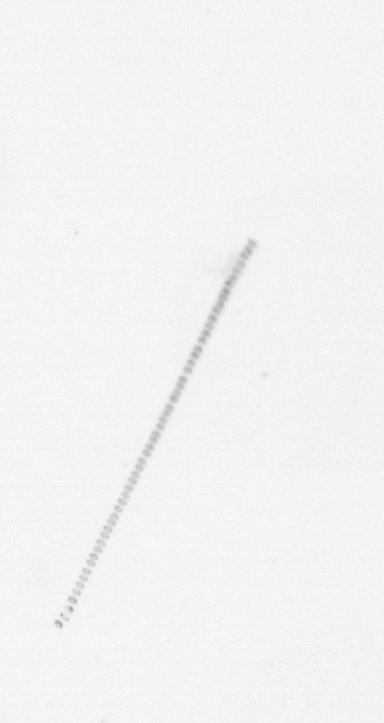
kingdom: Chromista
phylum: Ochrophyta
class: Bacillariophyceae
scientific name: Bacillariophyceae
